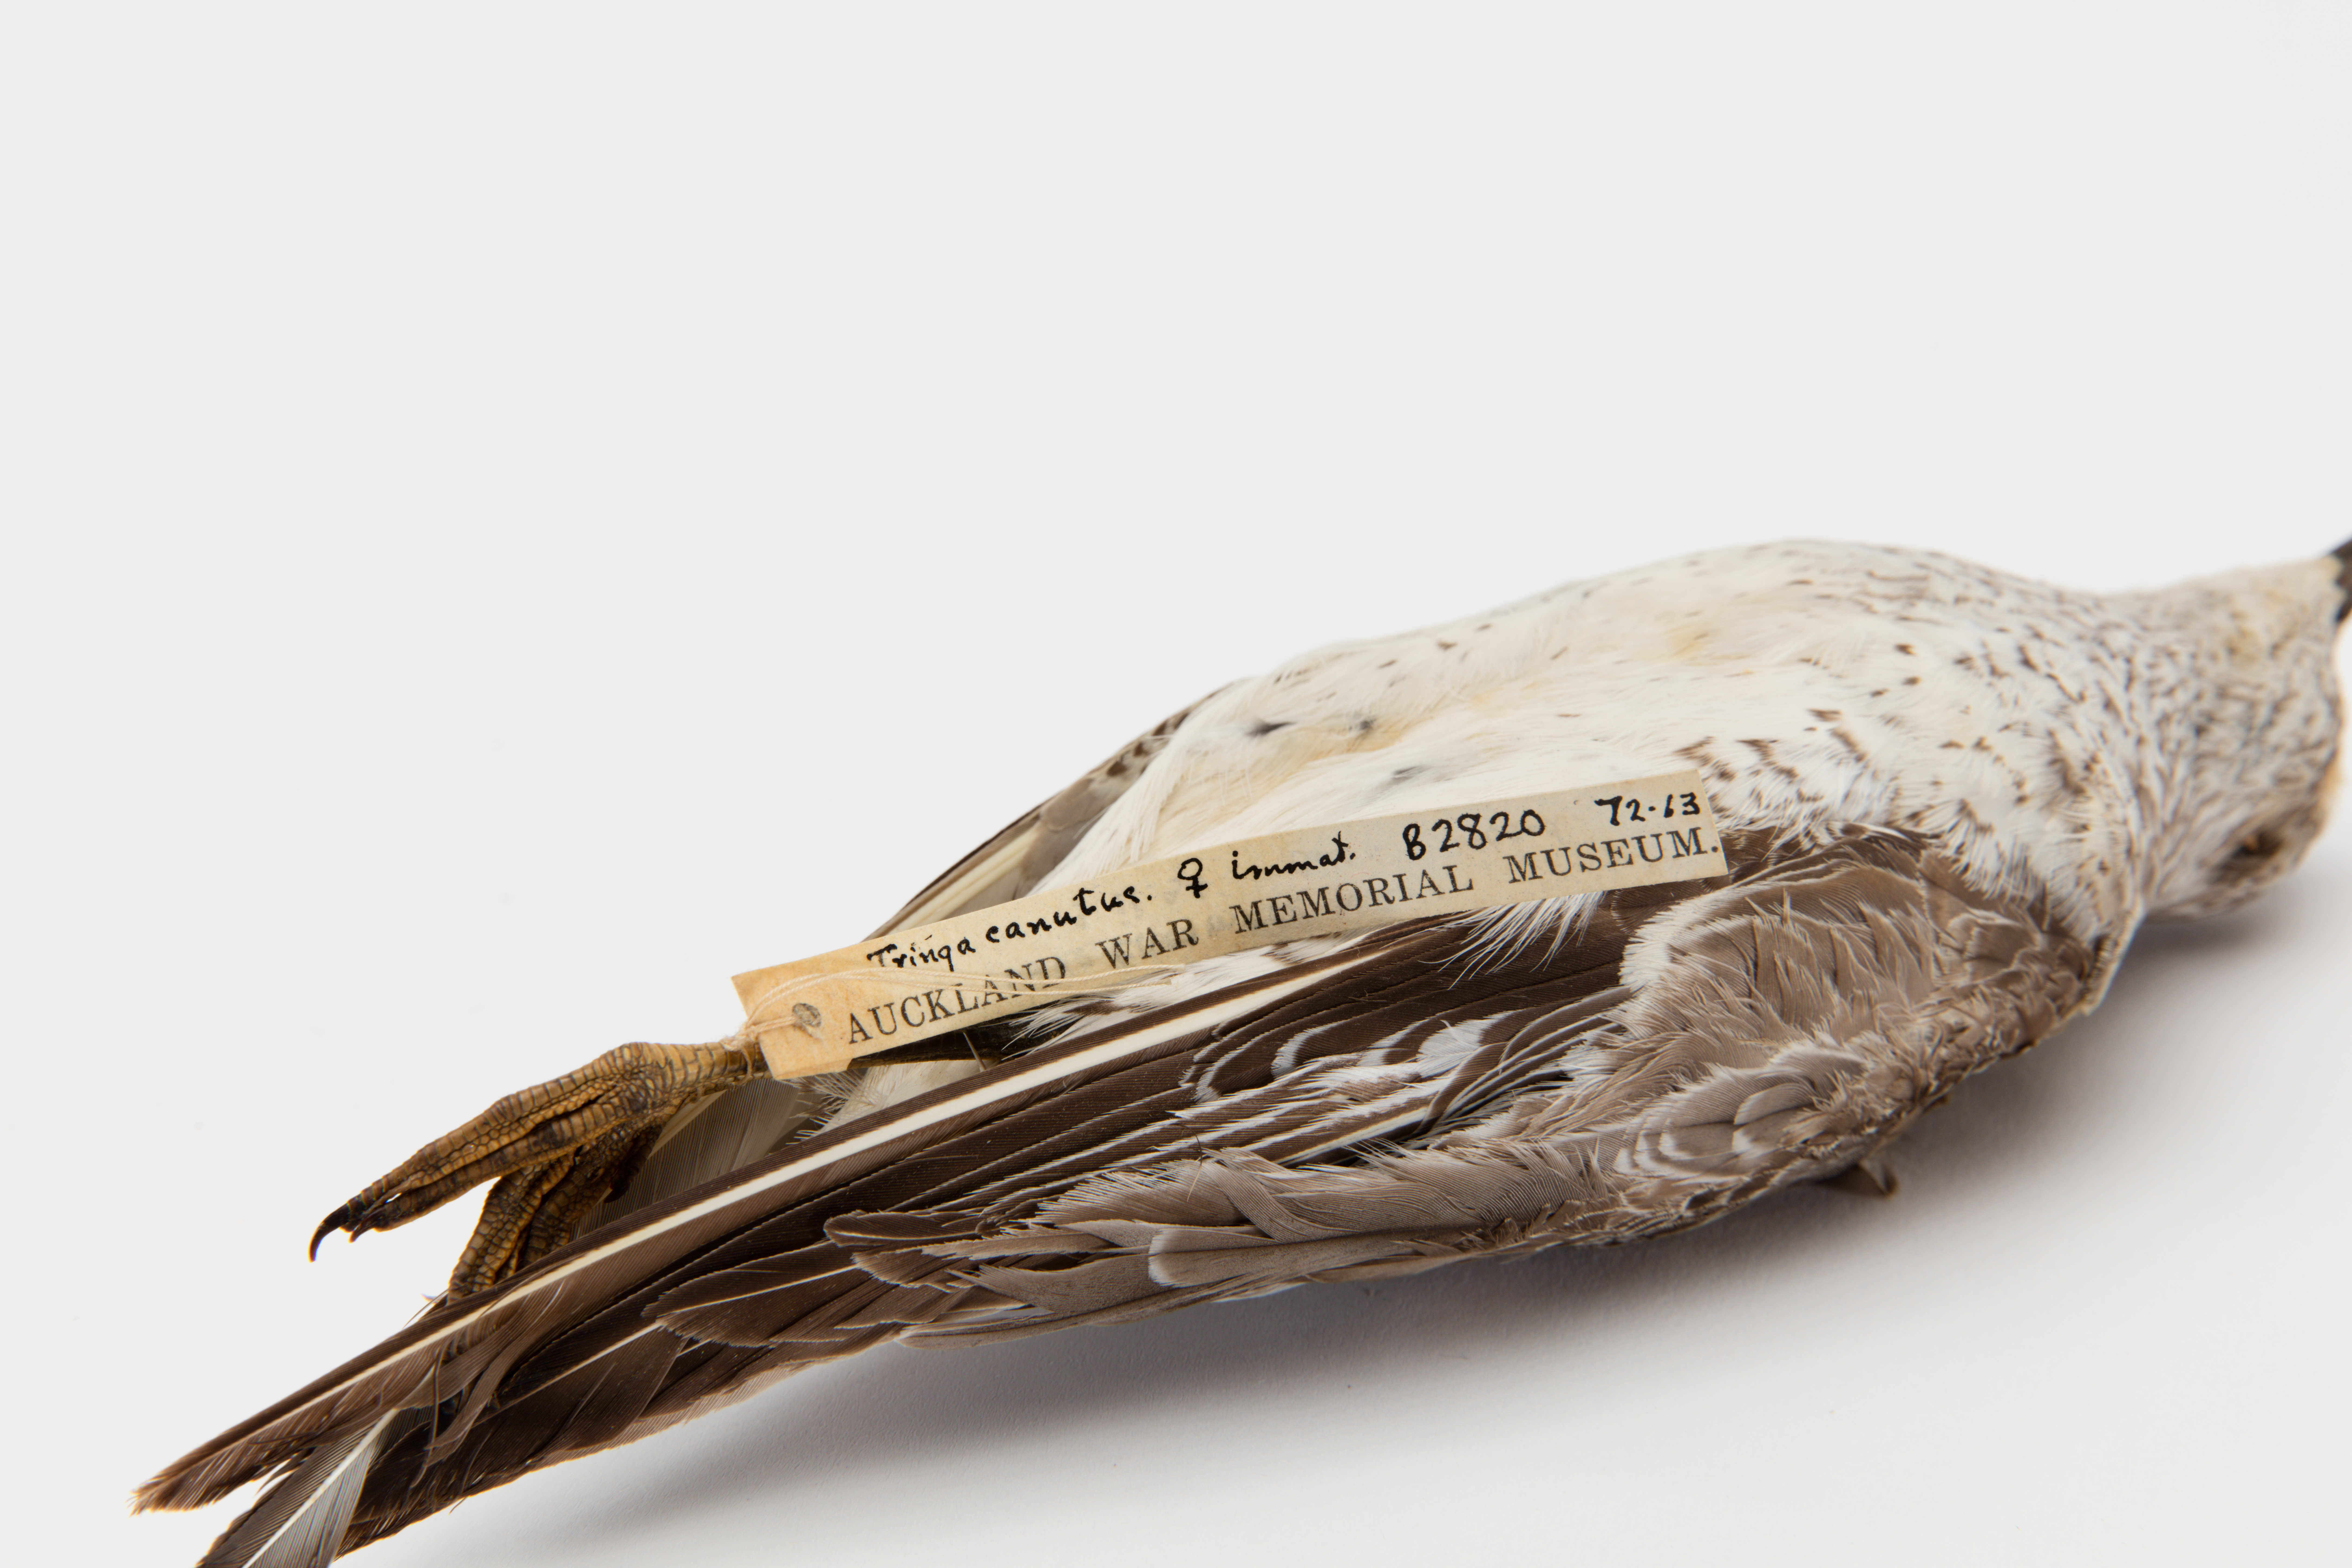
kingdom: Animalia
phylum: Chordata
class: Aves
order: Charadriiformes
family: Scolopacidae
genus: Calidris
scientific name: Calidris canutus
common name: Red knot
